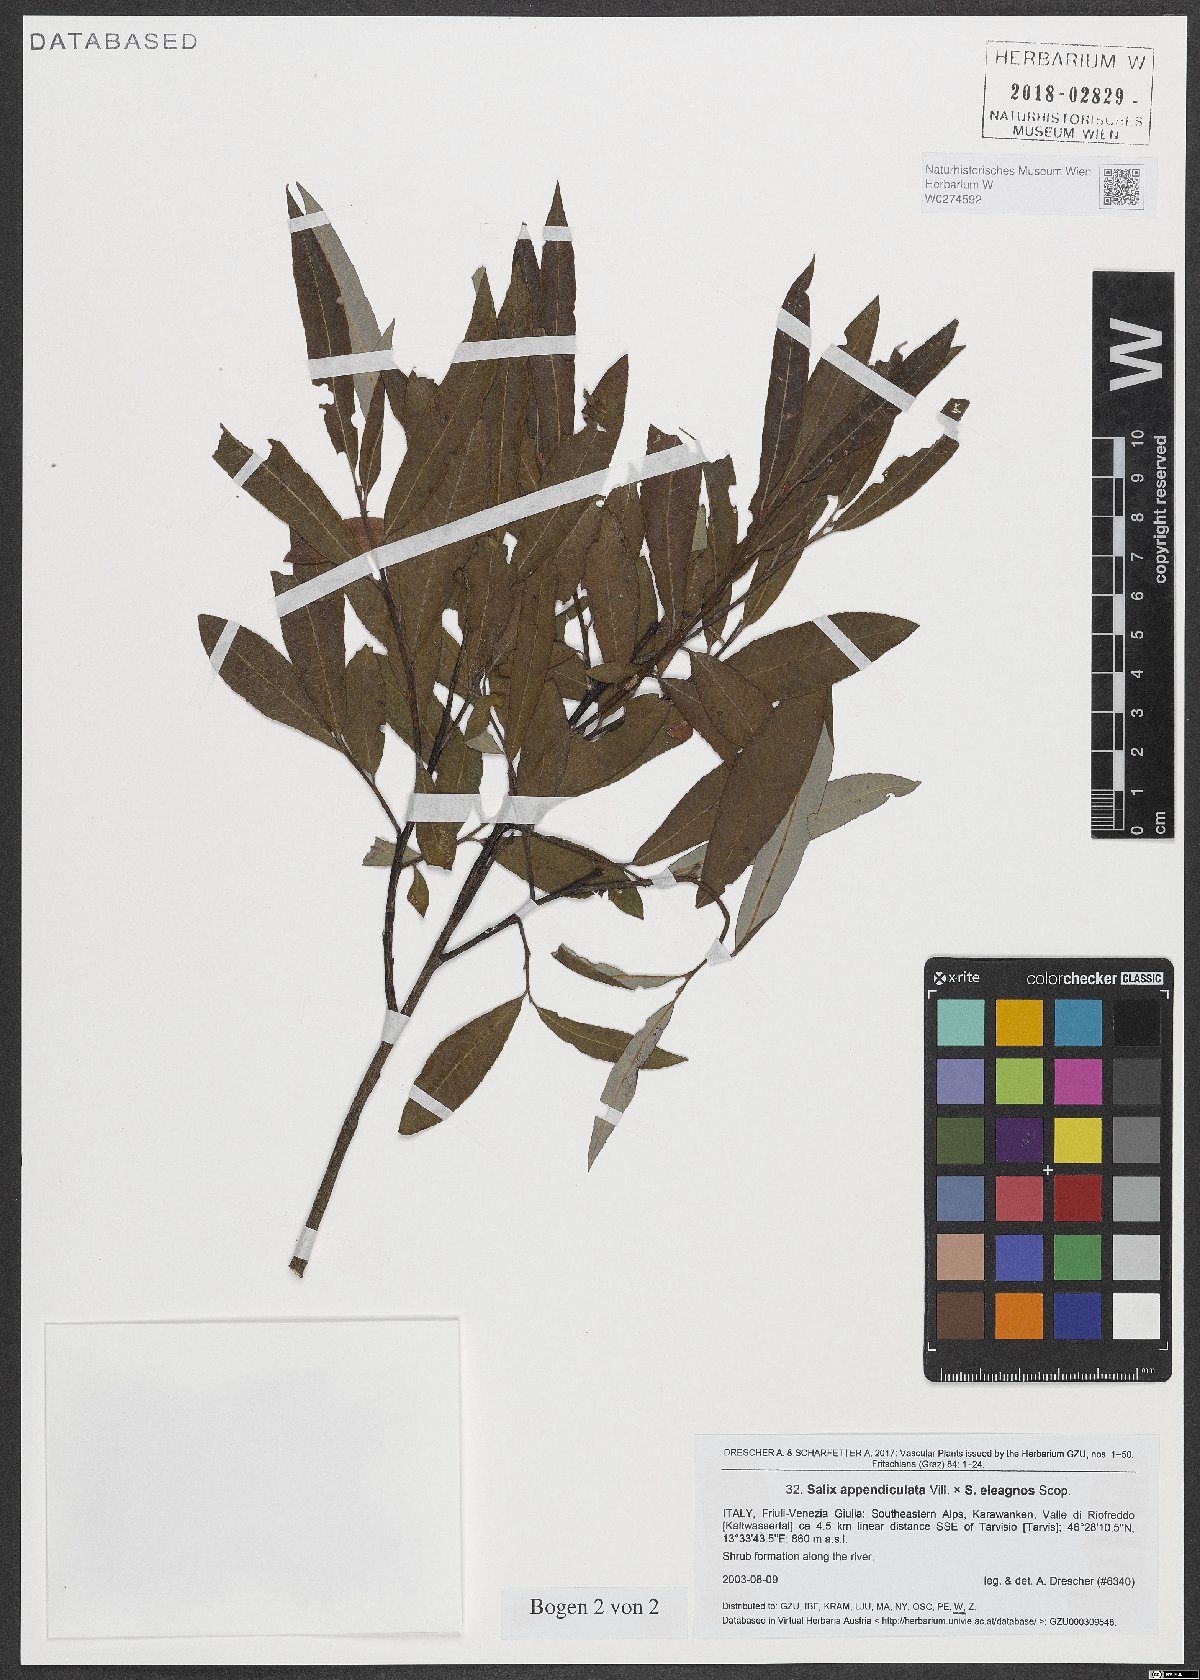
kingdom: Plantae
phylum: Tracheophyta
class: Magnoliopsida
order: Malpighiales
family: Salicaceae
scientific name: Salicaceae
